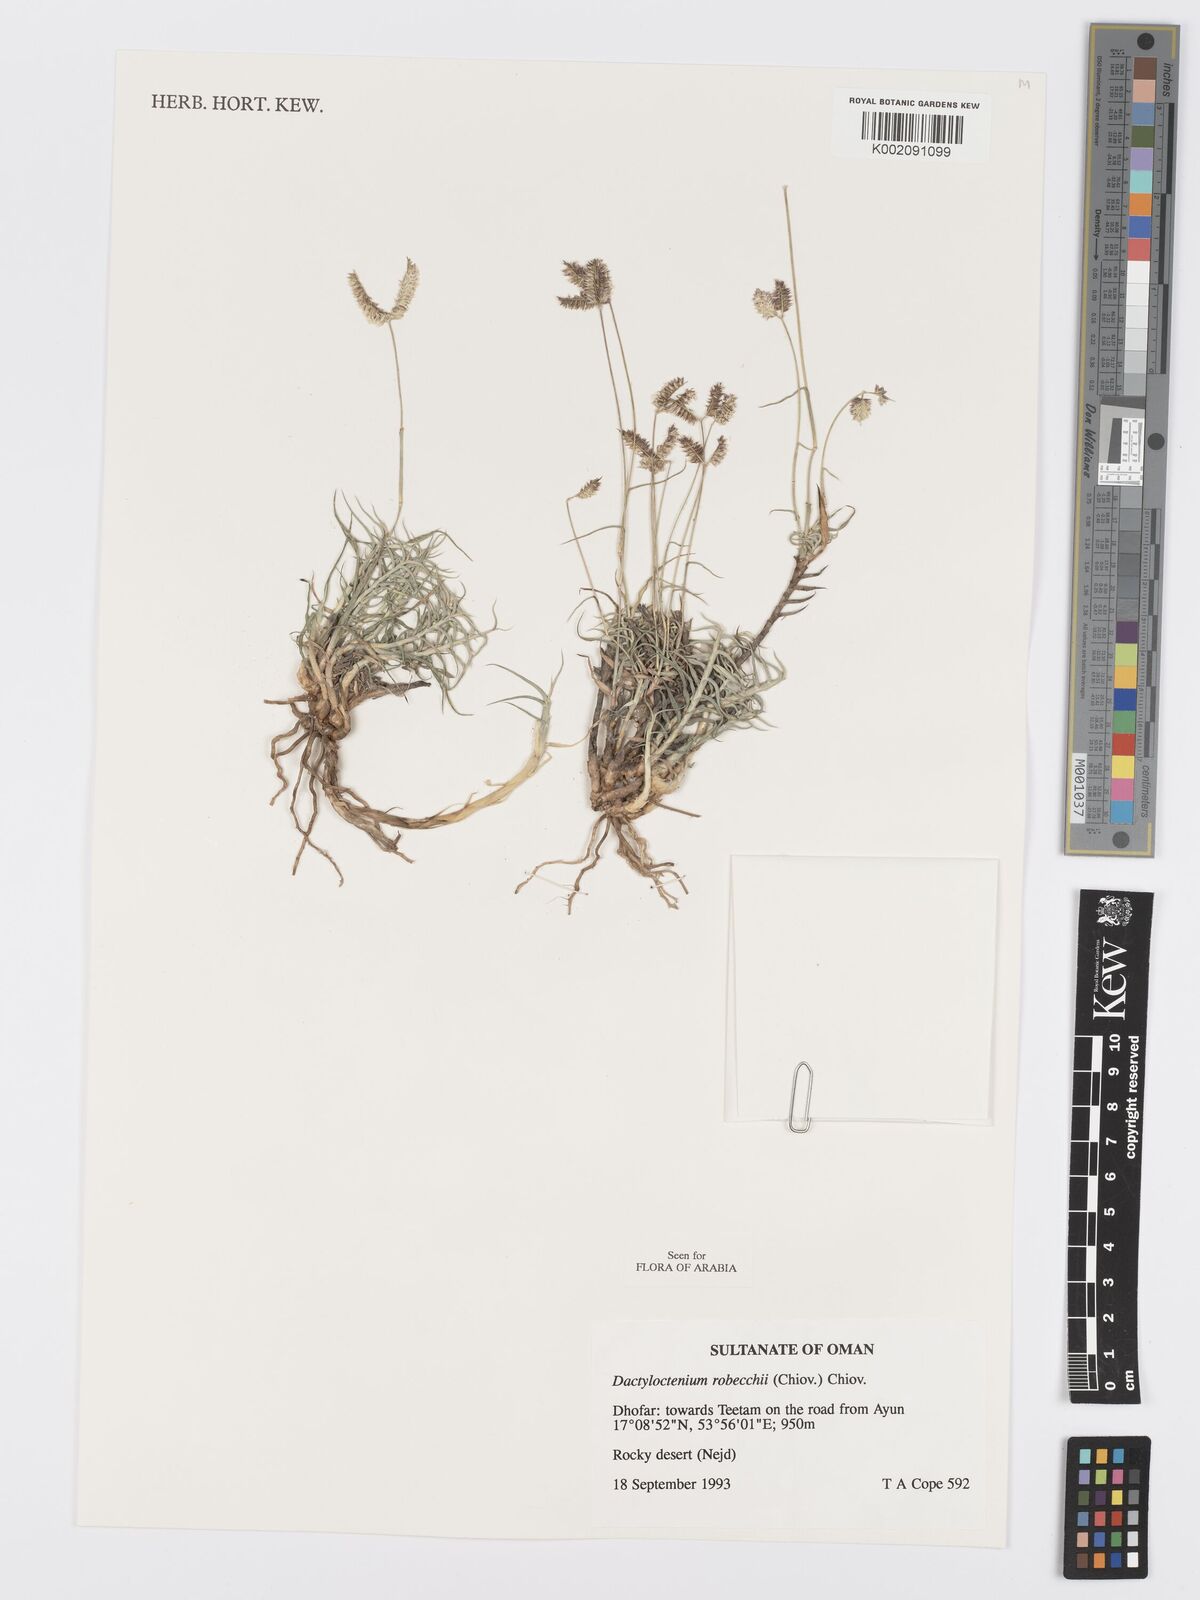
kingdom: Plantae
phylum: Tracheophyta
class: Liliopsida
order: Poales
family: Poaceae
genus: Dactyloctenium
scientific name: Dactyloctenium robecchii
